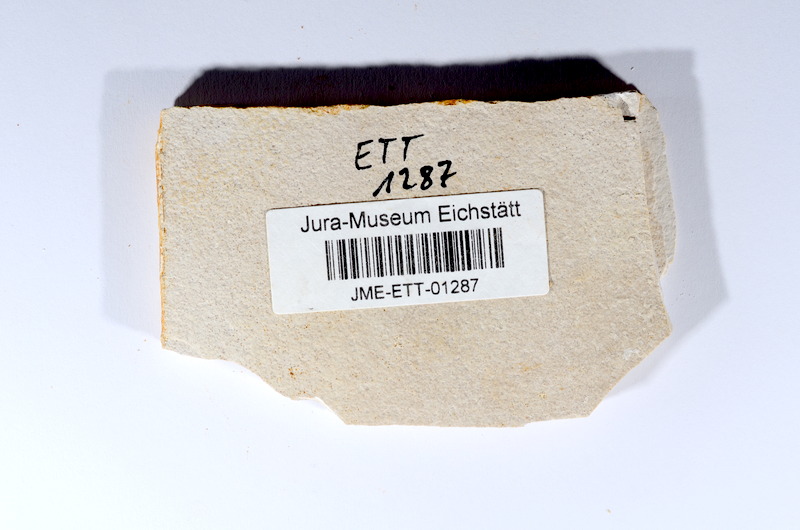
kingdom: Animalia
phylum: Chordata
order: Salmoniformes
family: Orthogonikleithridae
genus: Orthogonikleithrus
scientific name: Orthogonikleithrus hoelli
